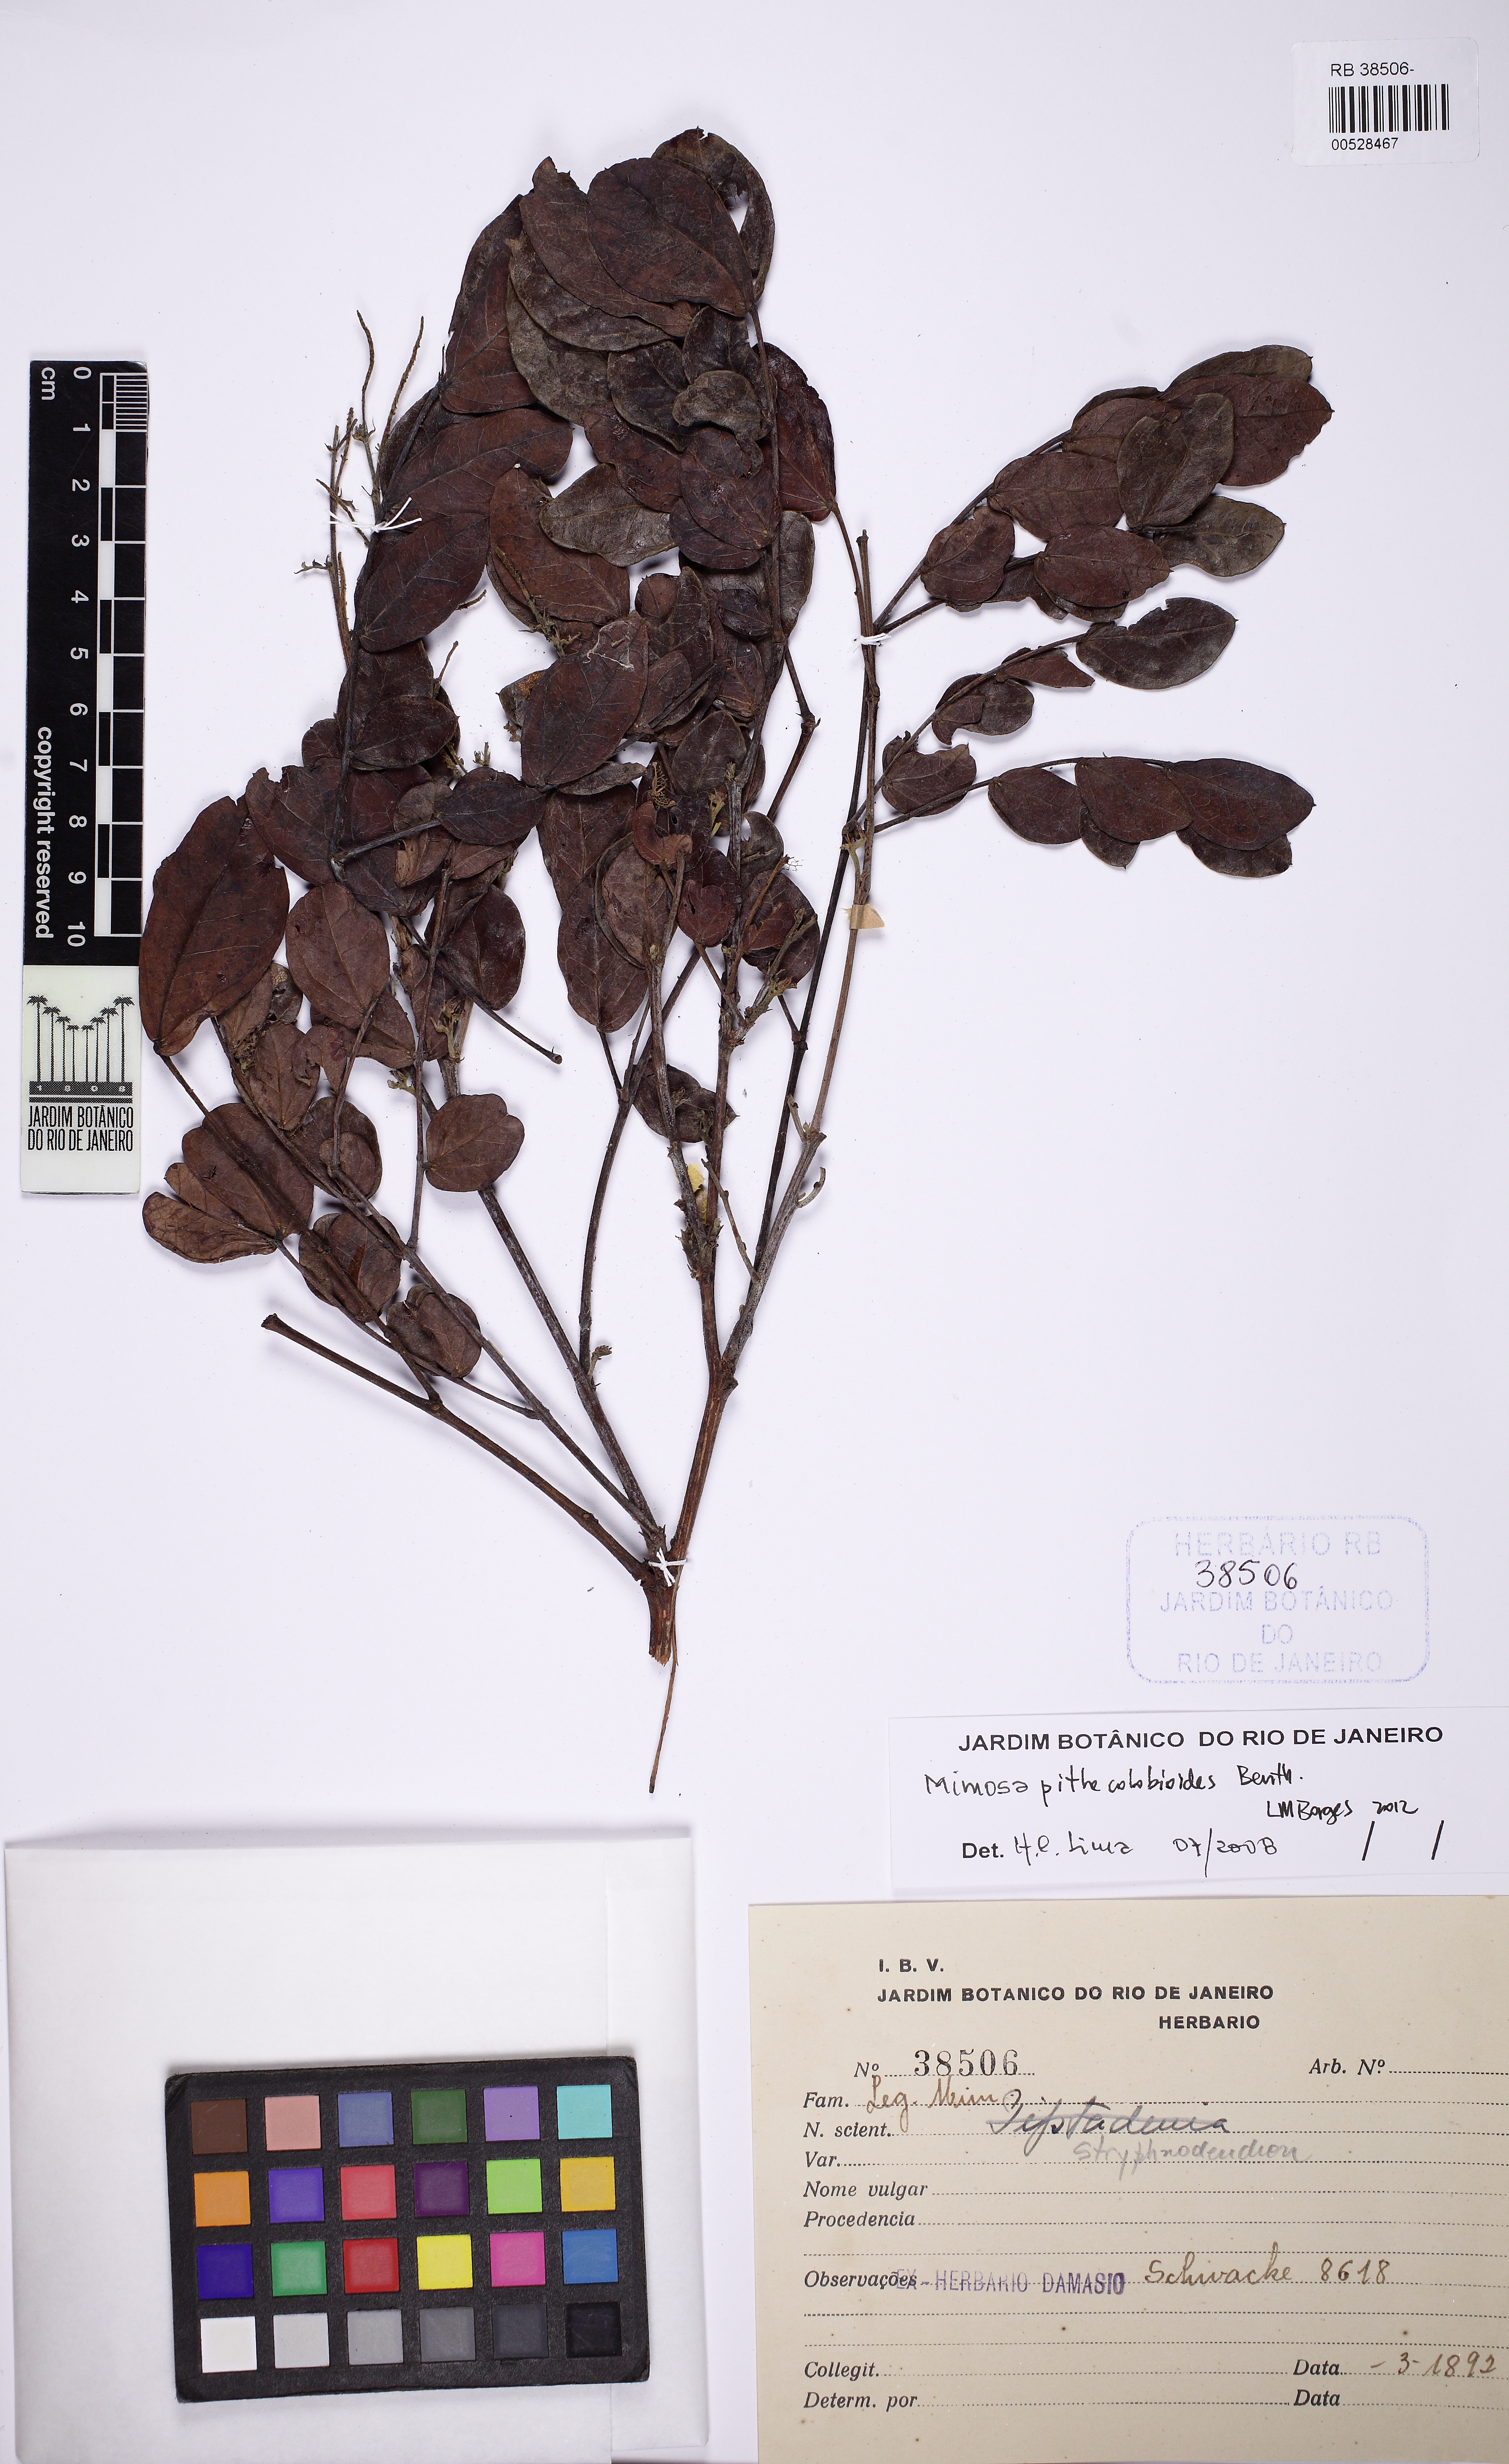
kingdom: Plantae
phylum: Tracheophyta
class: Magnoliopsida
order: Fabales
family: Fabaceae
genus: Mimosa
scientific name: Mimosa pithecolobioides
